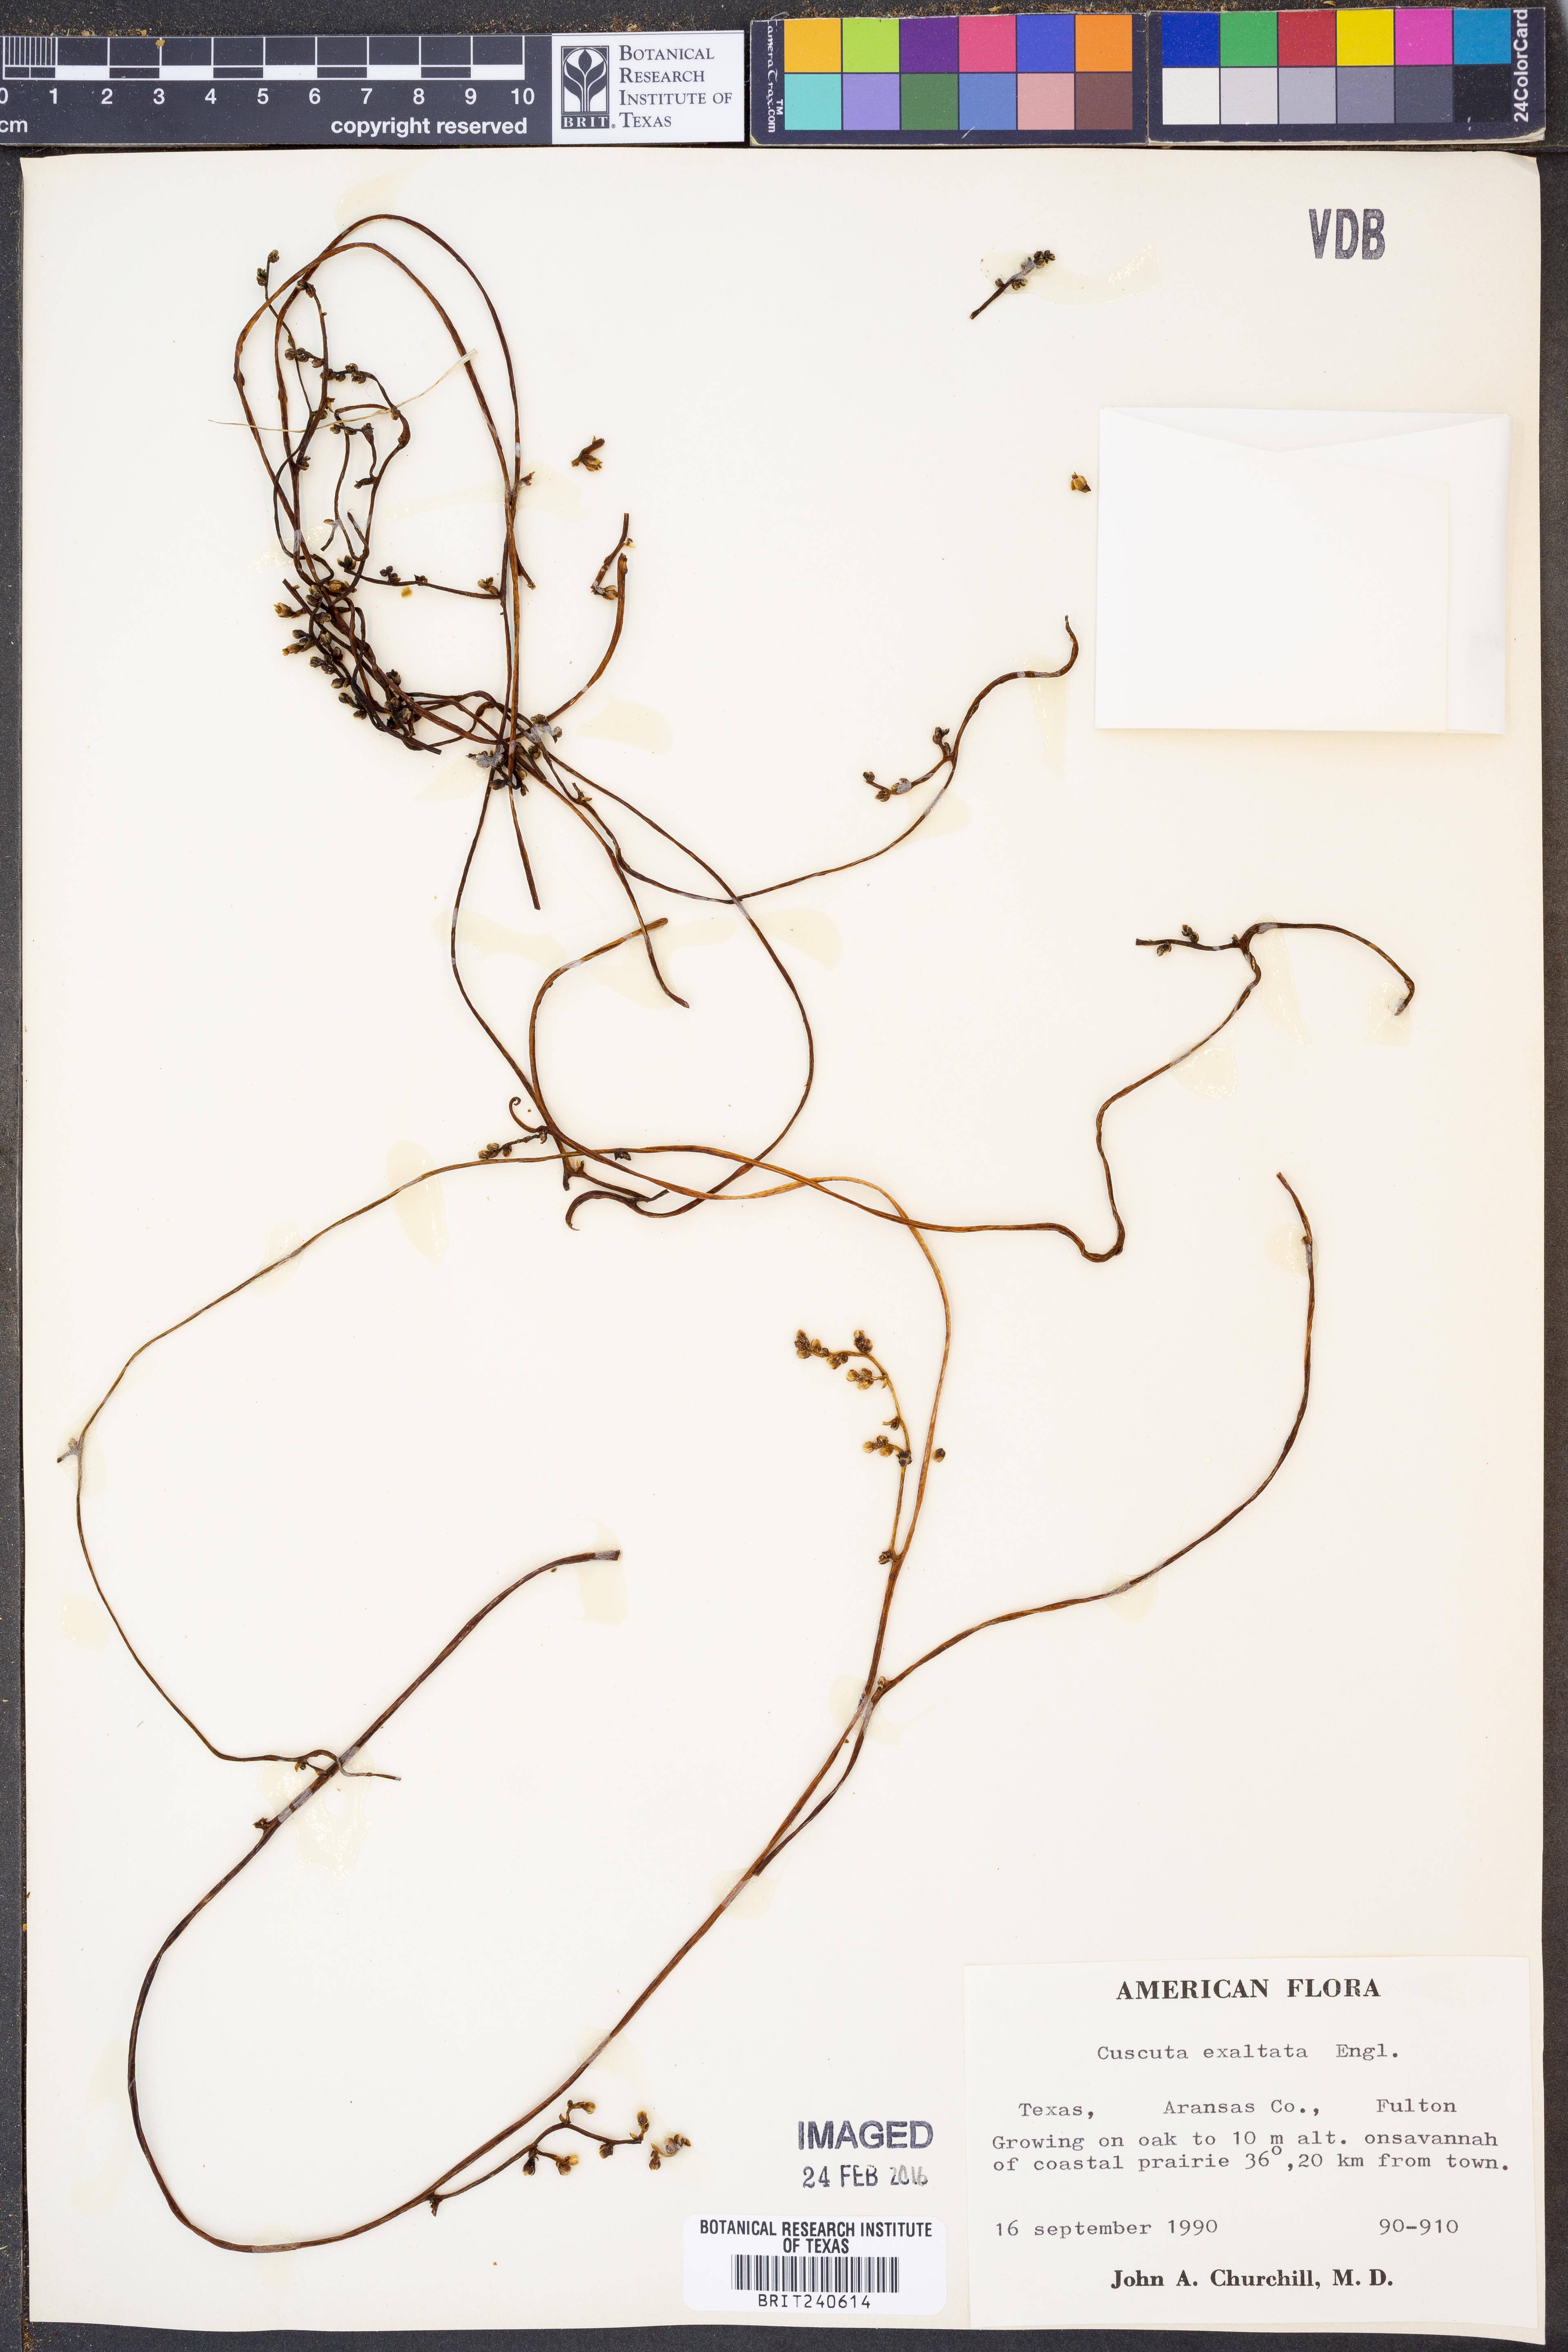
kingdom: Plantae
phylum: Tracheophyta
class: Magnoliopsida
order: Solanales
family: Convolvulaceae
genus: Cuscuta
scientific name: Cuscuta exaltata
